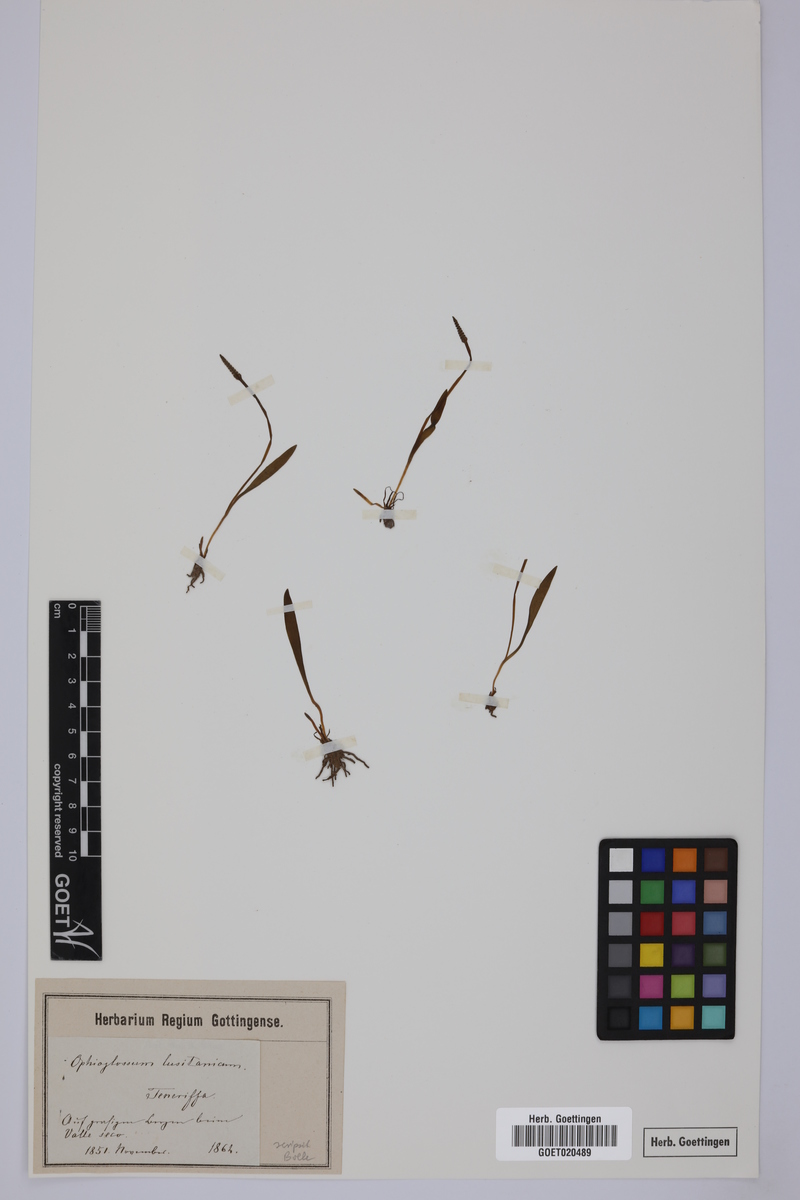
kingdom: Plantae
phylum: Tracheophyta
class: Polypodiopsida
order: Ophioglossales
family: Ophioglossaceae
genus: Ophioglossum
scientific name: Ophioglossum lusitanicum
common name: Least adder's-tongue
